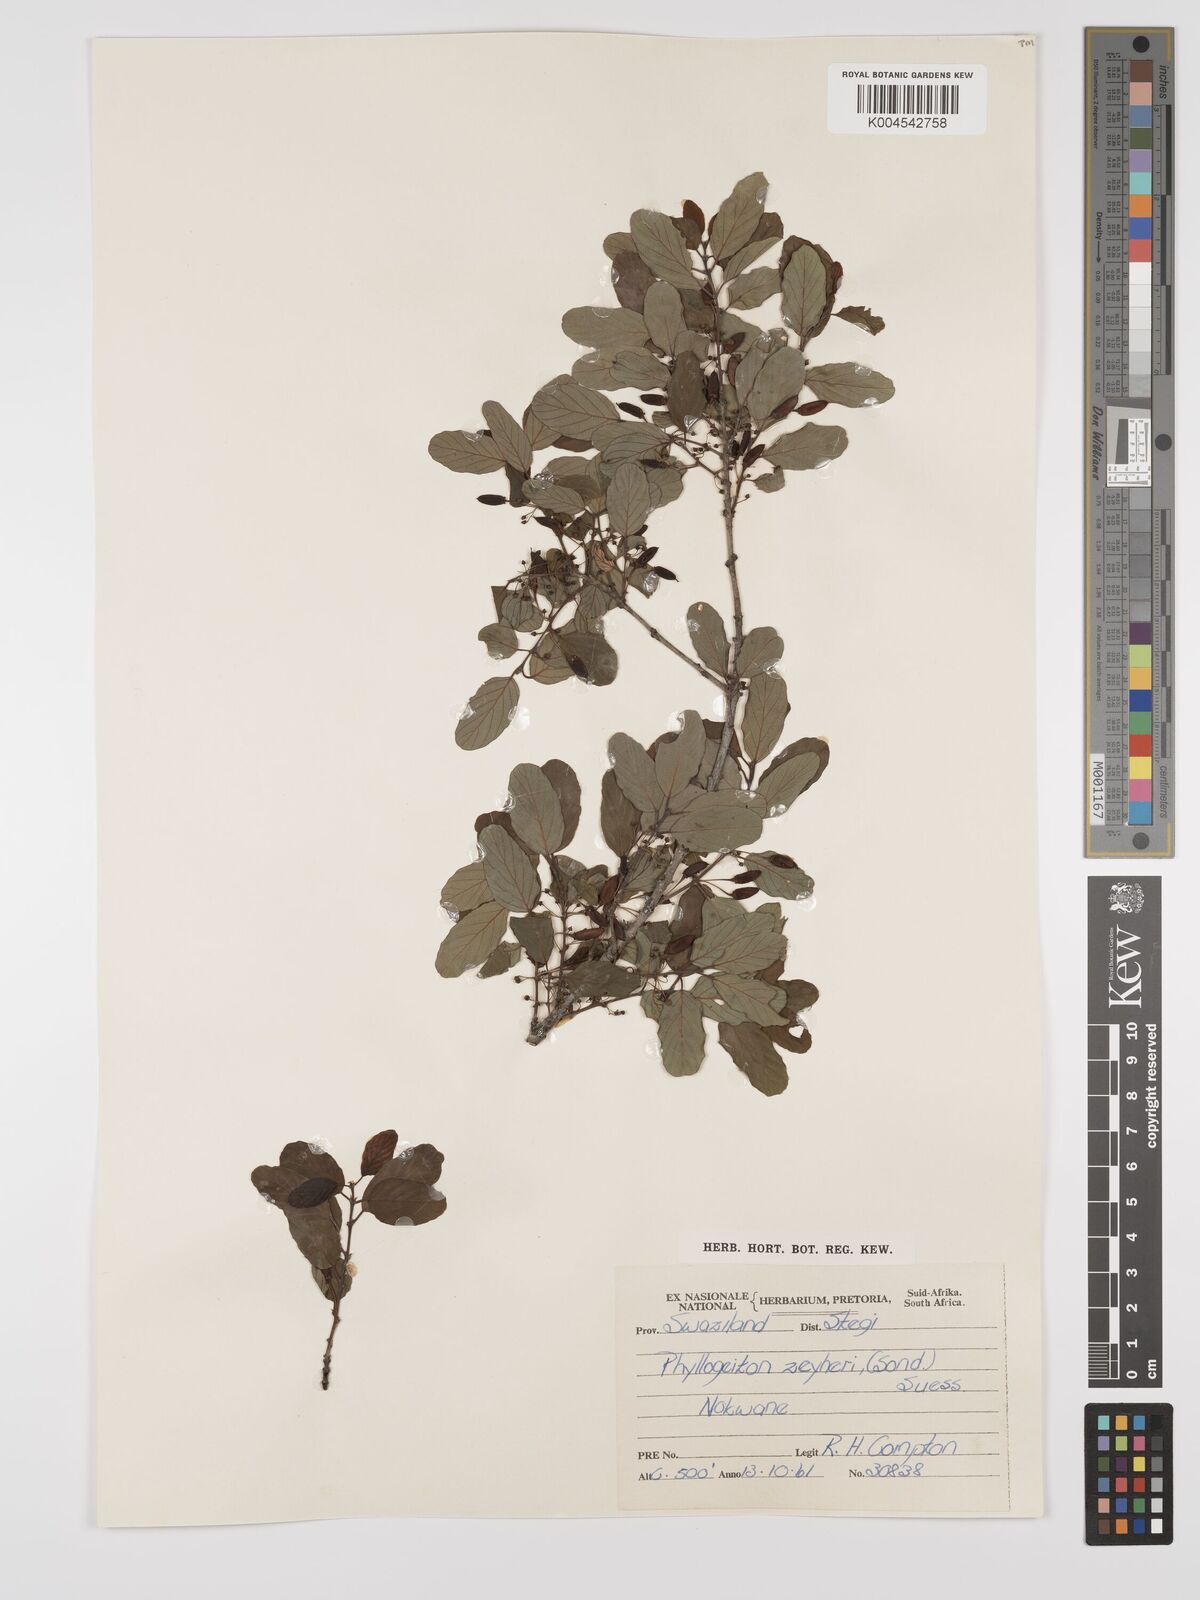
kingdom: Plantae
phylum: Tracheophyta
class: Magnoliopsida
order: Rosales
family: Rhamnaceae
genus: Phyllogeiton
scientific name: Phyllogeiton zeyheri
